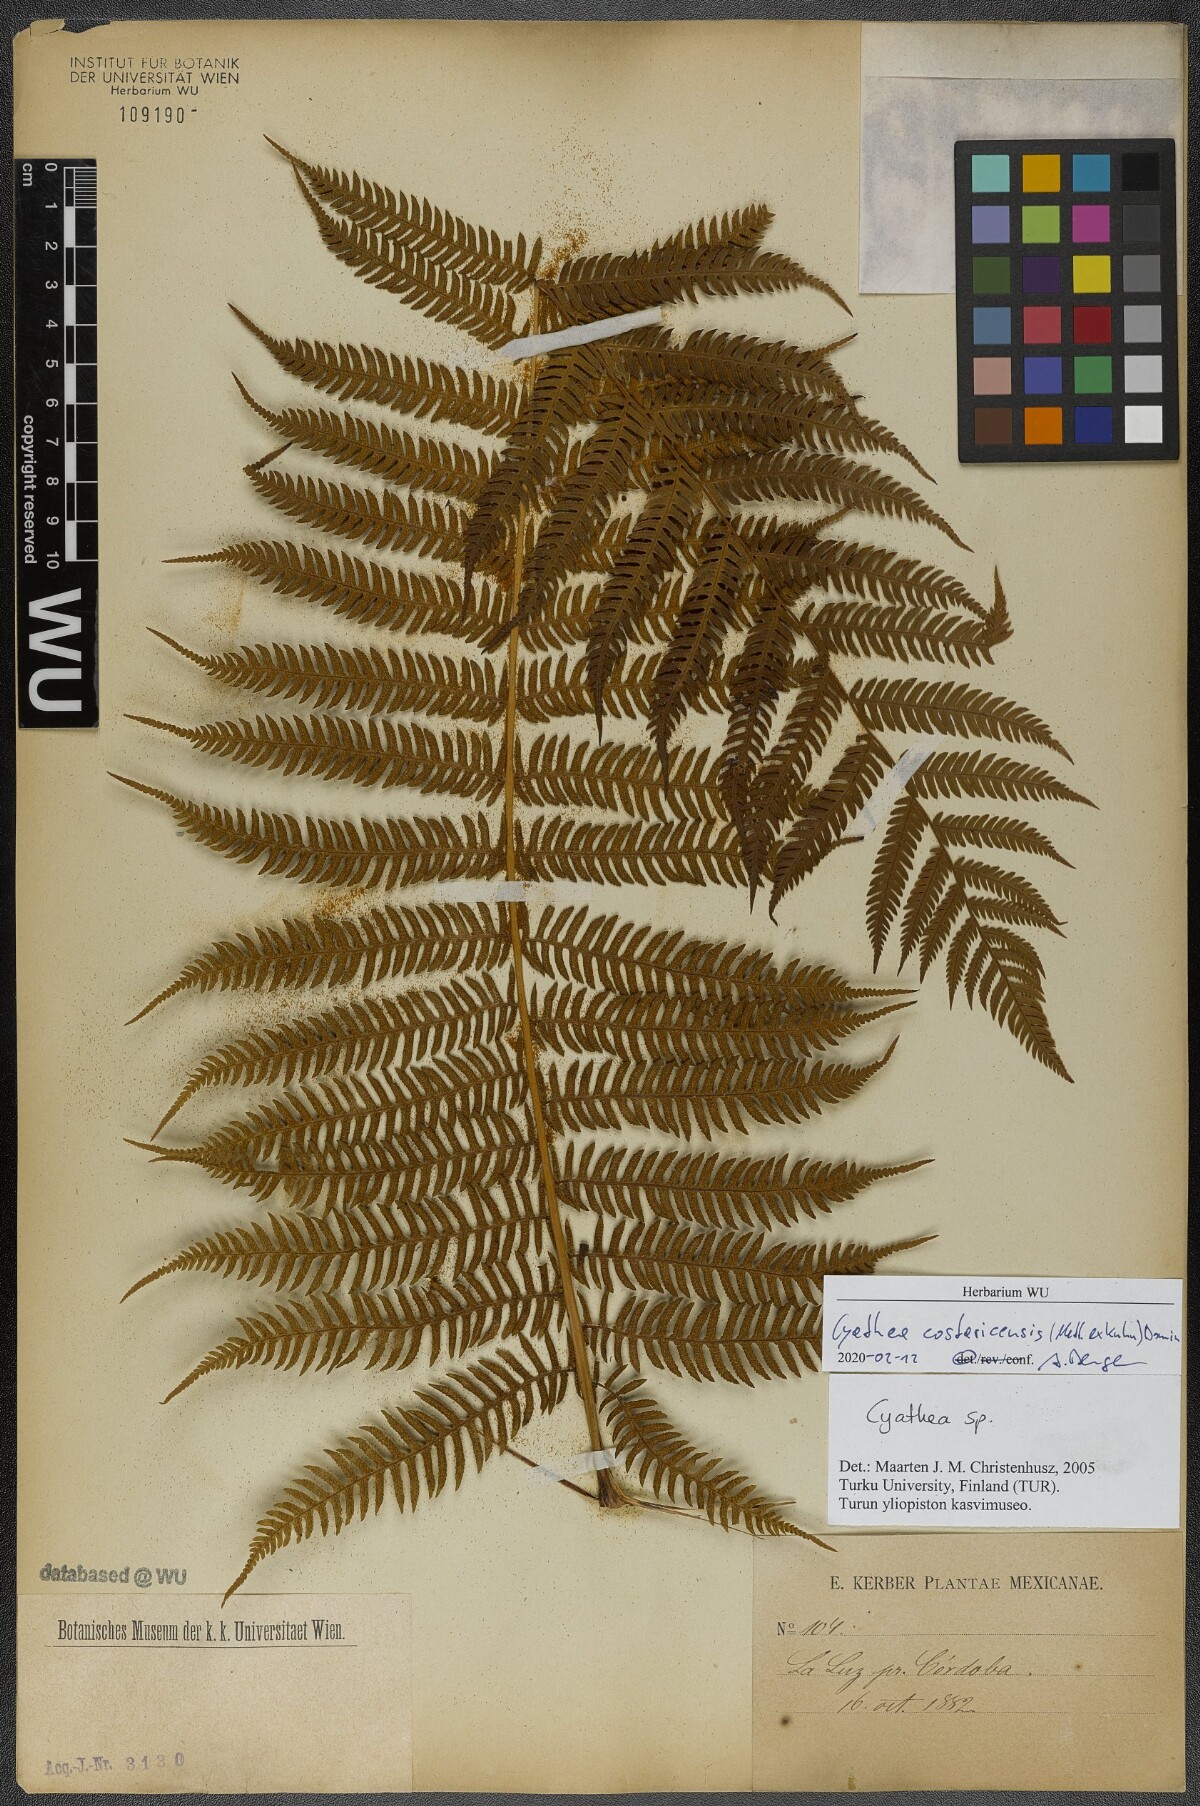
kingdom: Plantae
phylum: Tracheophyta
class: Polypodiopsida
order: Cyatheales
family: Cyatheaceae
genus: Cyathea
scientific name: Cyathea costaricensis
